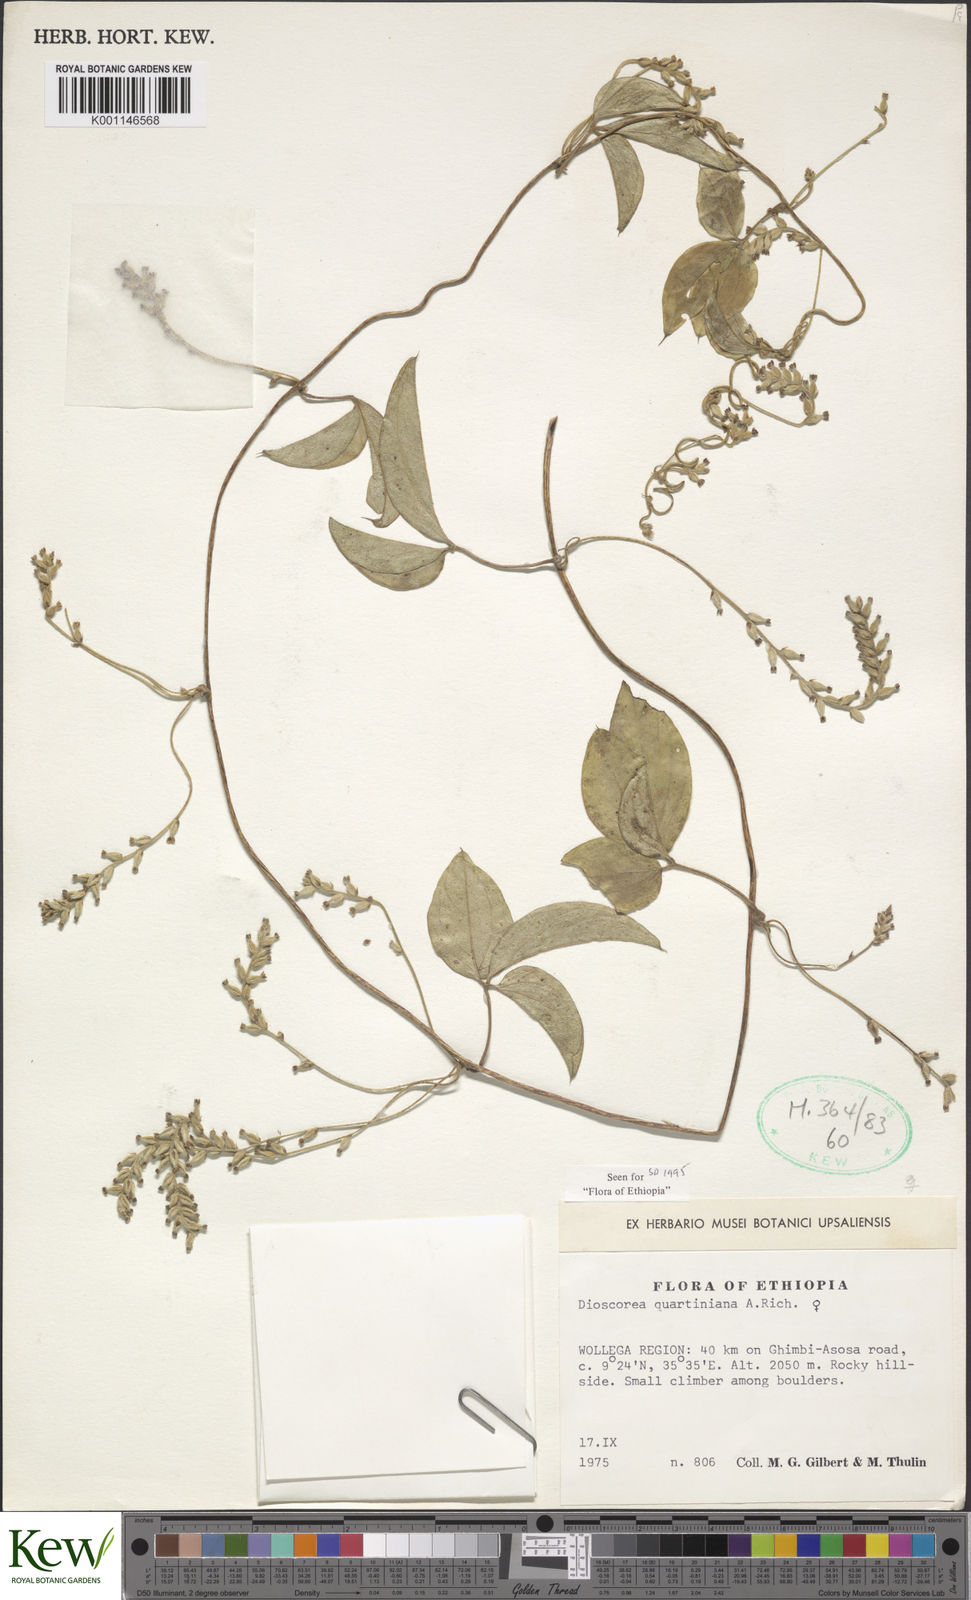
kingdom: Plantae
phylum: Tracheophyta
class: Liliopsida
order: Dioscoreales
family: Dioscoreaceae
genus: Dioscorea
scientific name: Dioscorea quartiniana
